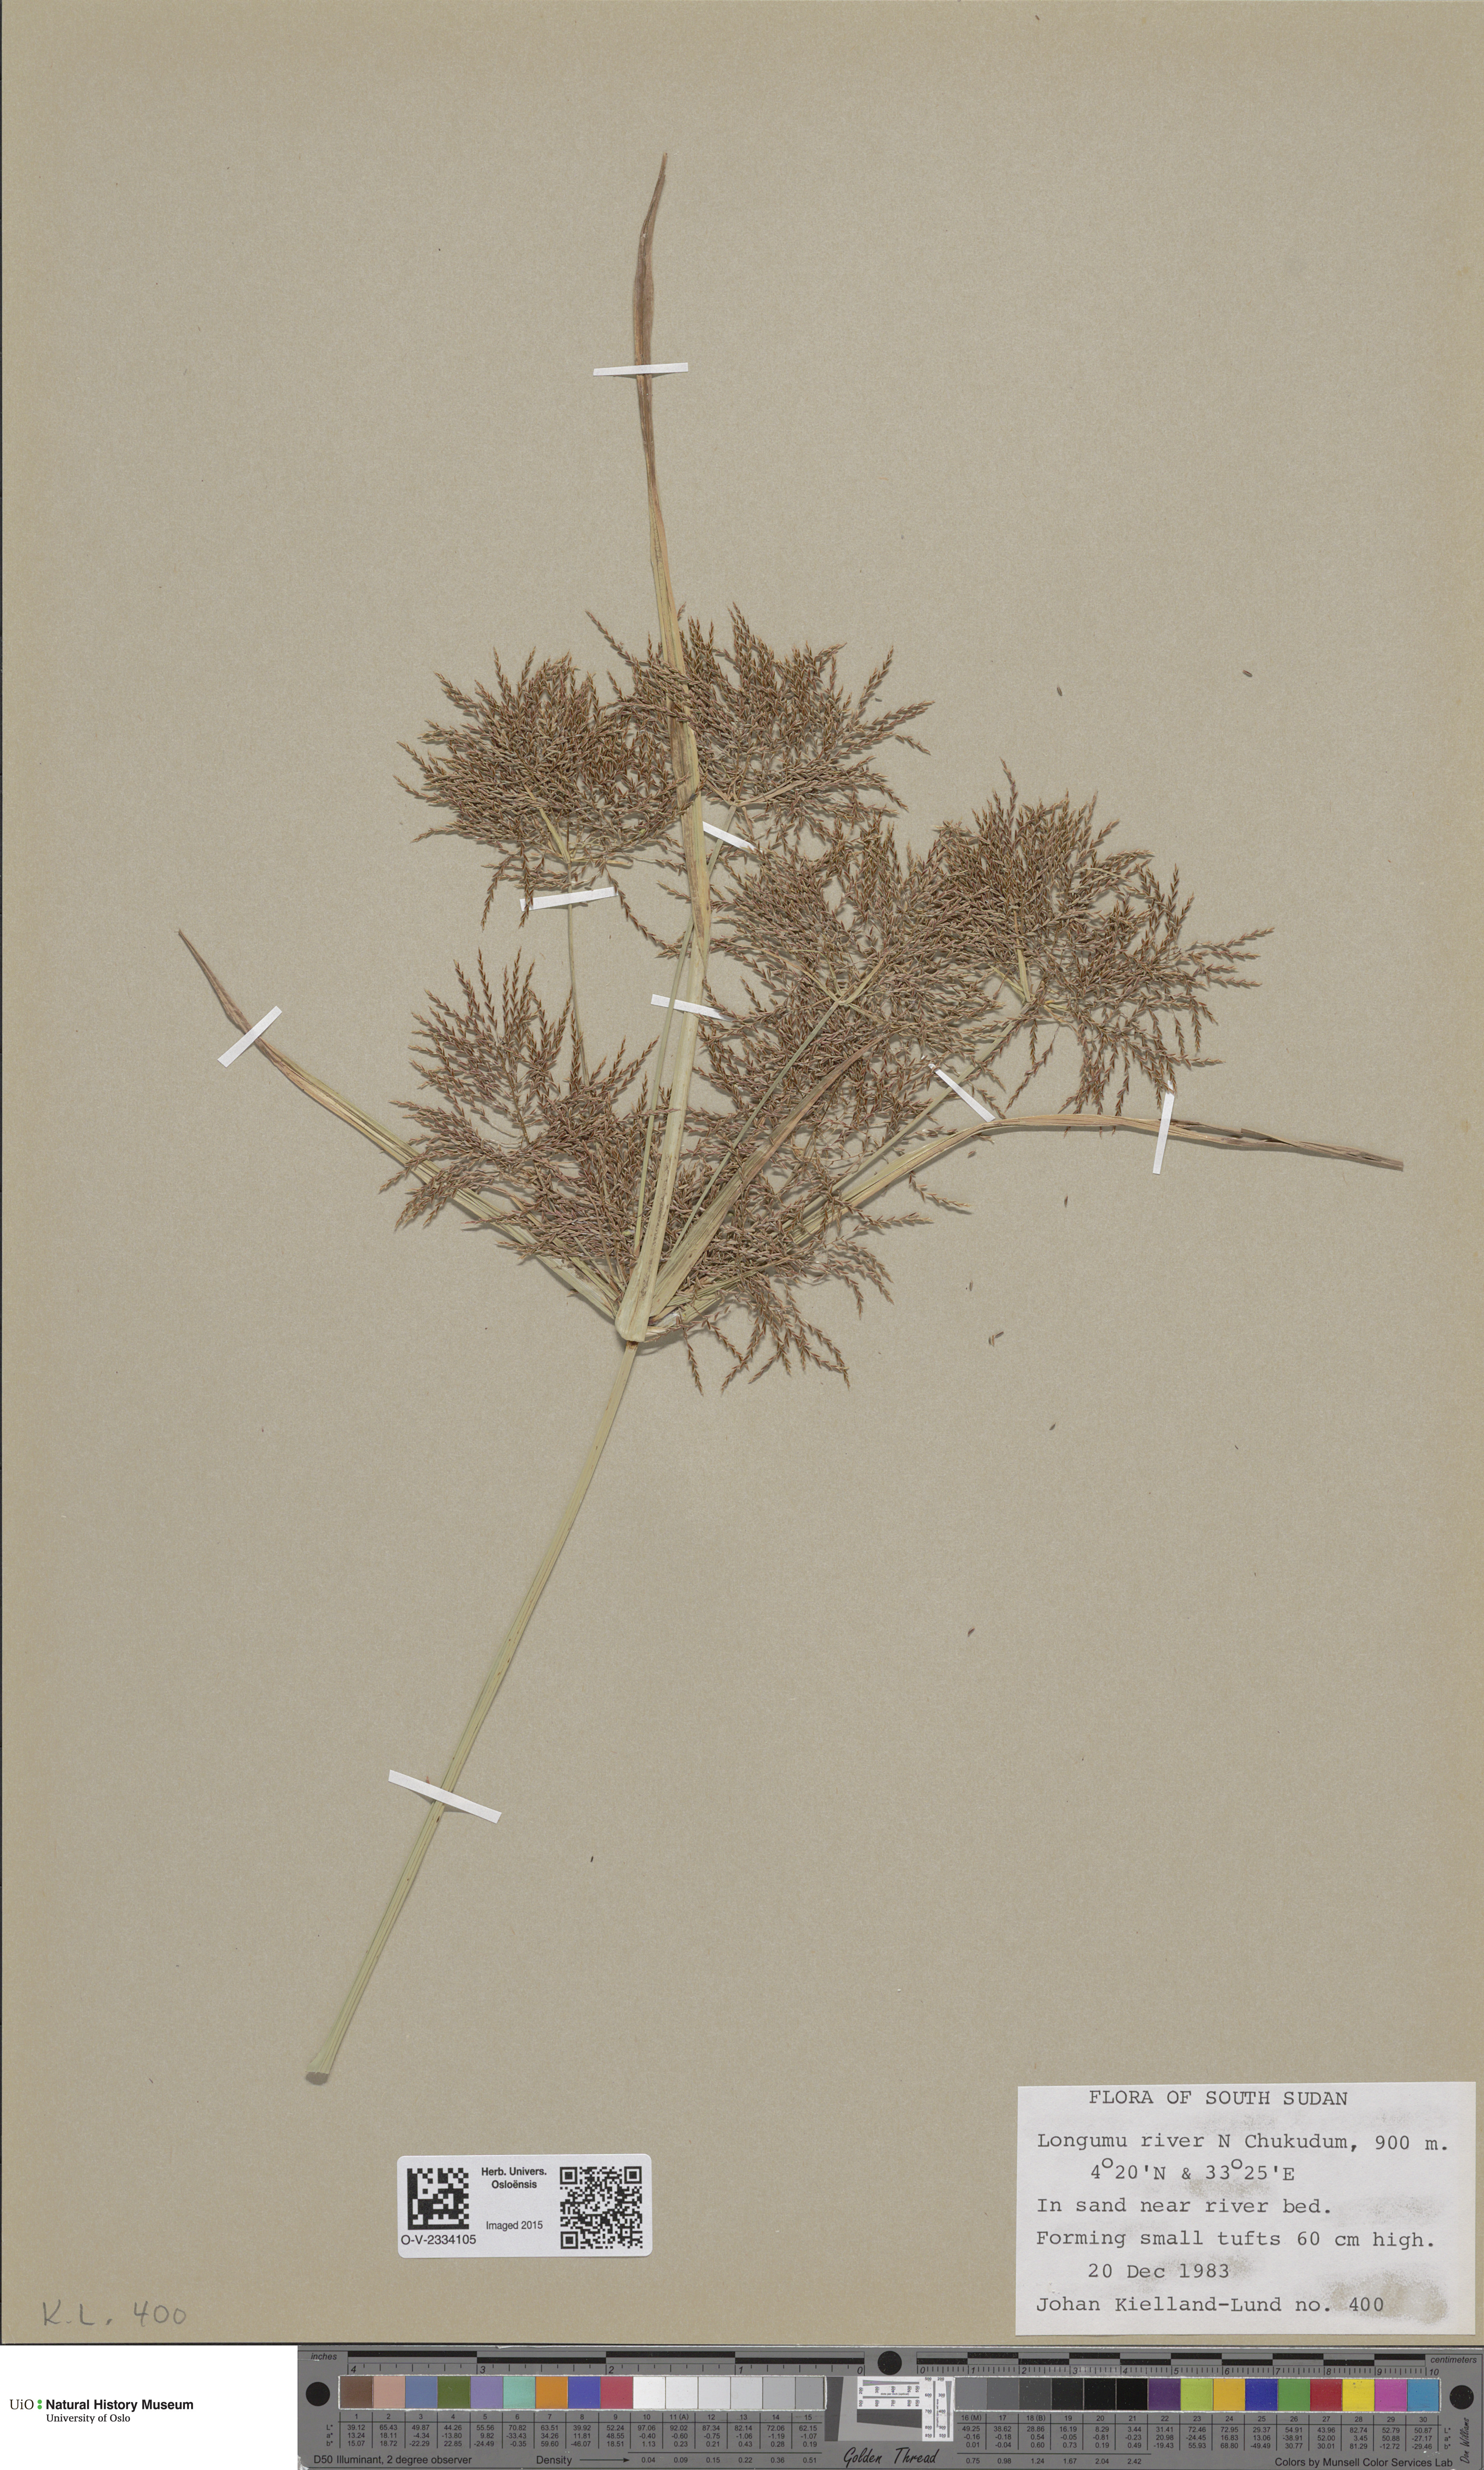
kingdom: Plantae
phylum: Tracheophyta
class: Magnoliopsida
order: Saxifragales
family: Saxifragaceae
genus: Saxifraga
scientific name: Saxifraga cernua
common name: Drooping saxifrage
